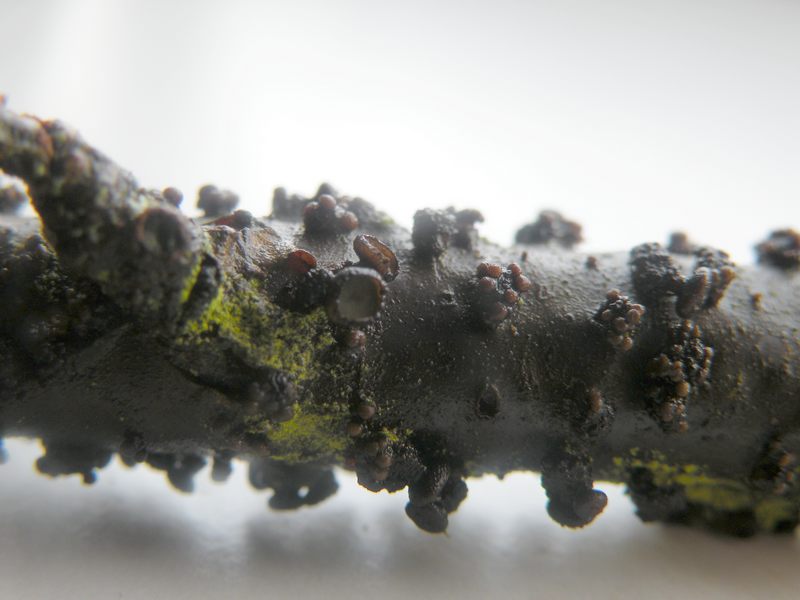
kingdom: Fungi
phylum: Ascomycota
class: Leotiomycetes
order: Helotiales
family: Godroniaceae
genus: Godronia
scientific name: Godronia ribis
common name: ribs-urneskive
